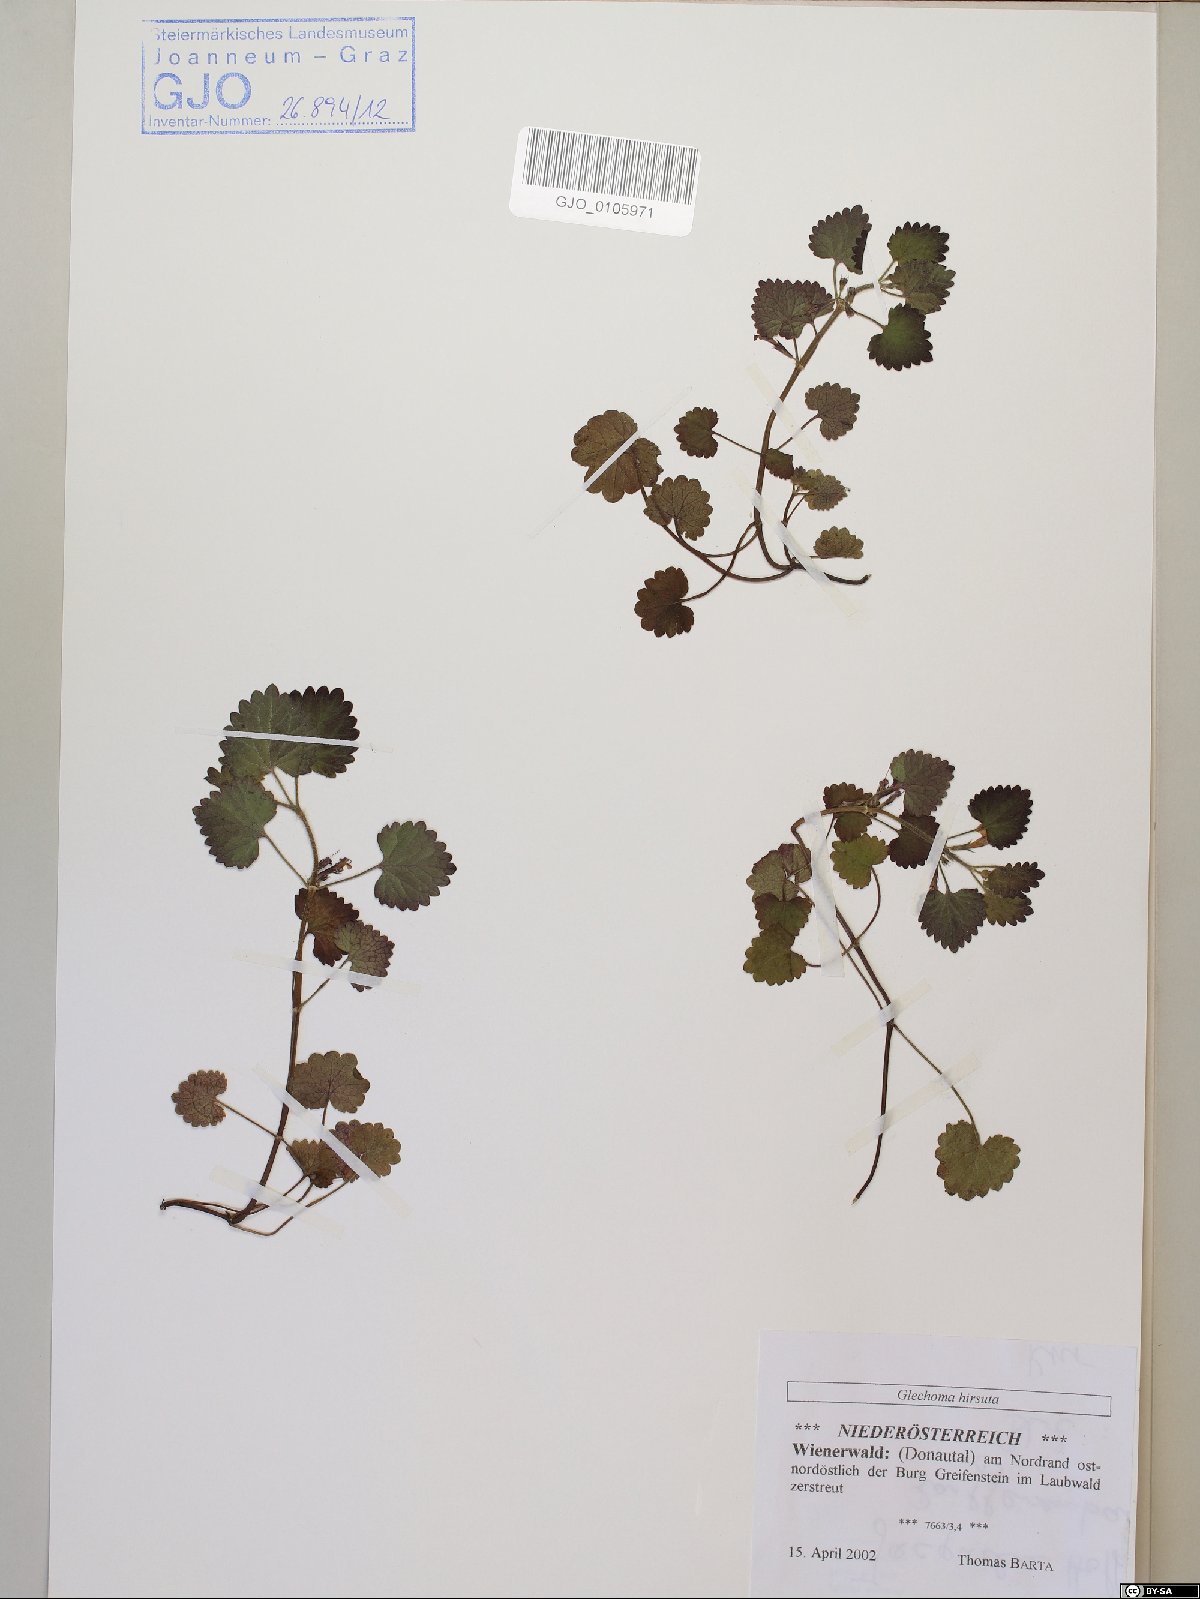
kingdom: Plantae
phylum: Tracheophyta
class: Magnoliopsida
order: Lamiales
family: Lamiaceae
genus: Glechoma
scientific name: Glechoma hirsuta
